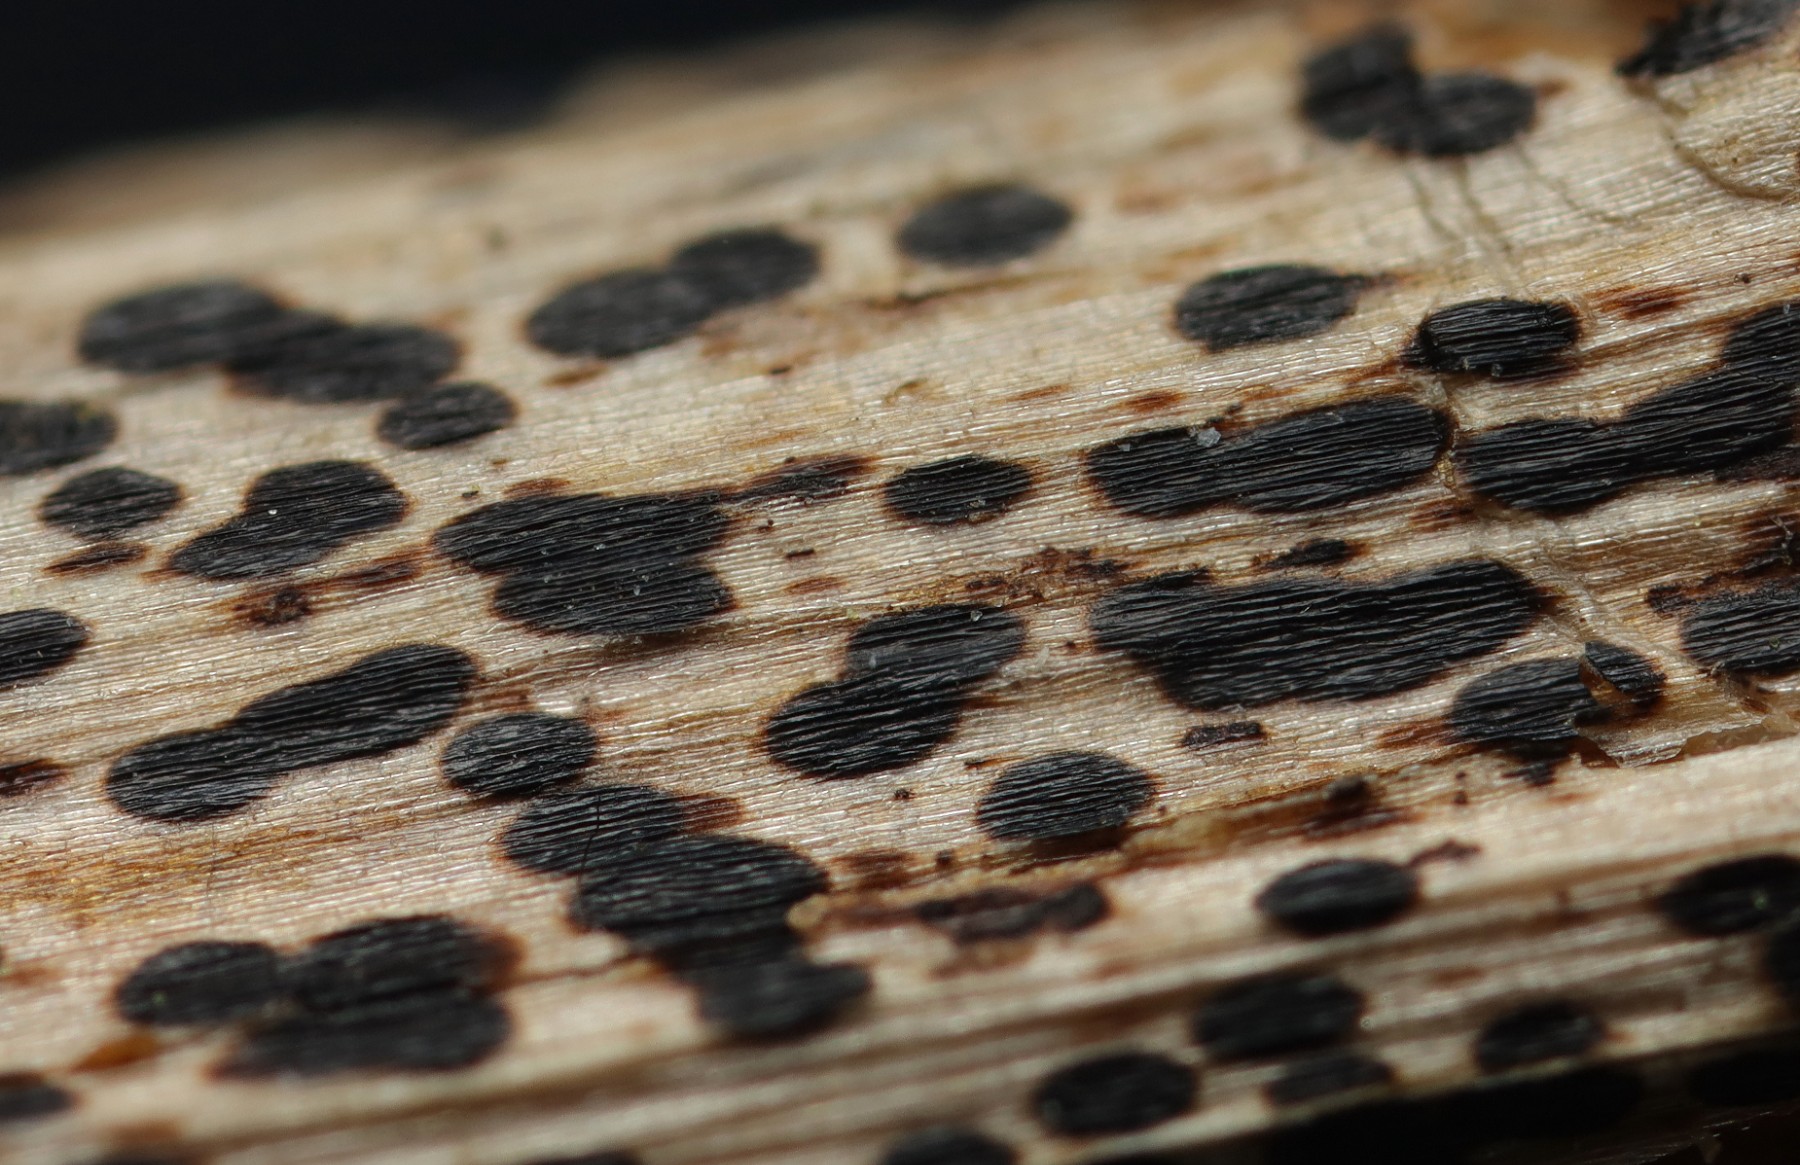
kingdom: Fungi
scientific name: Fungi
